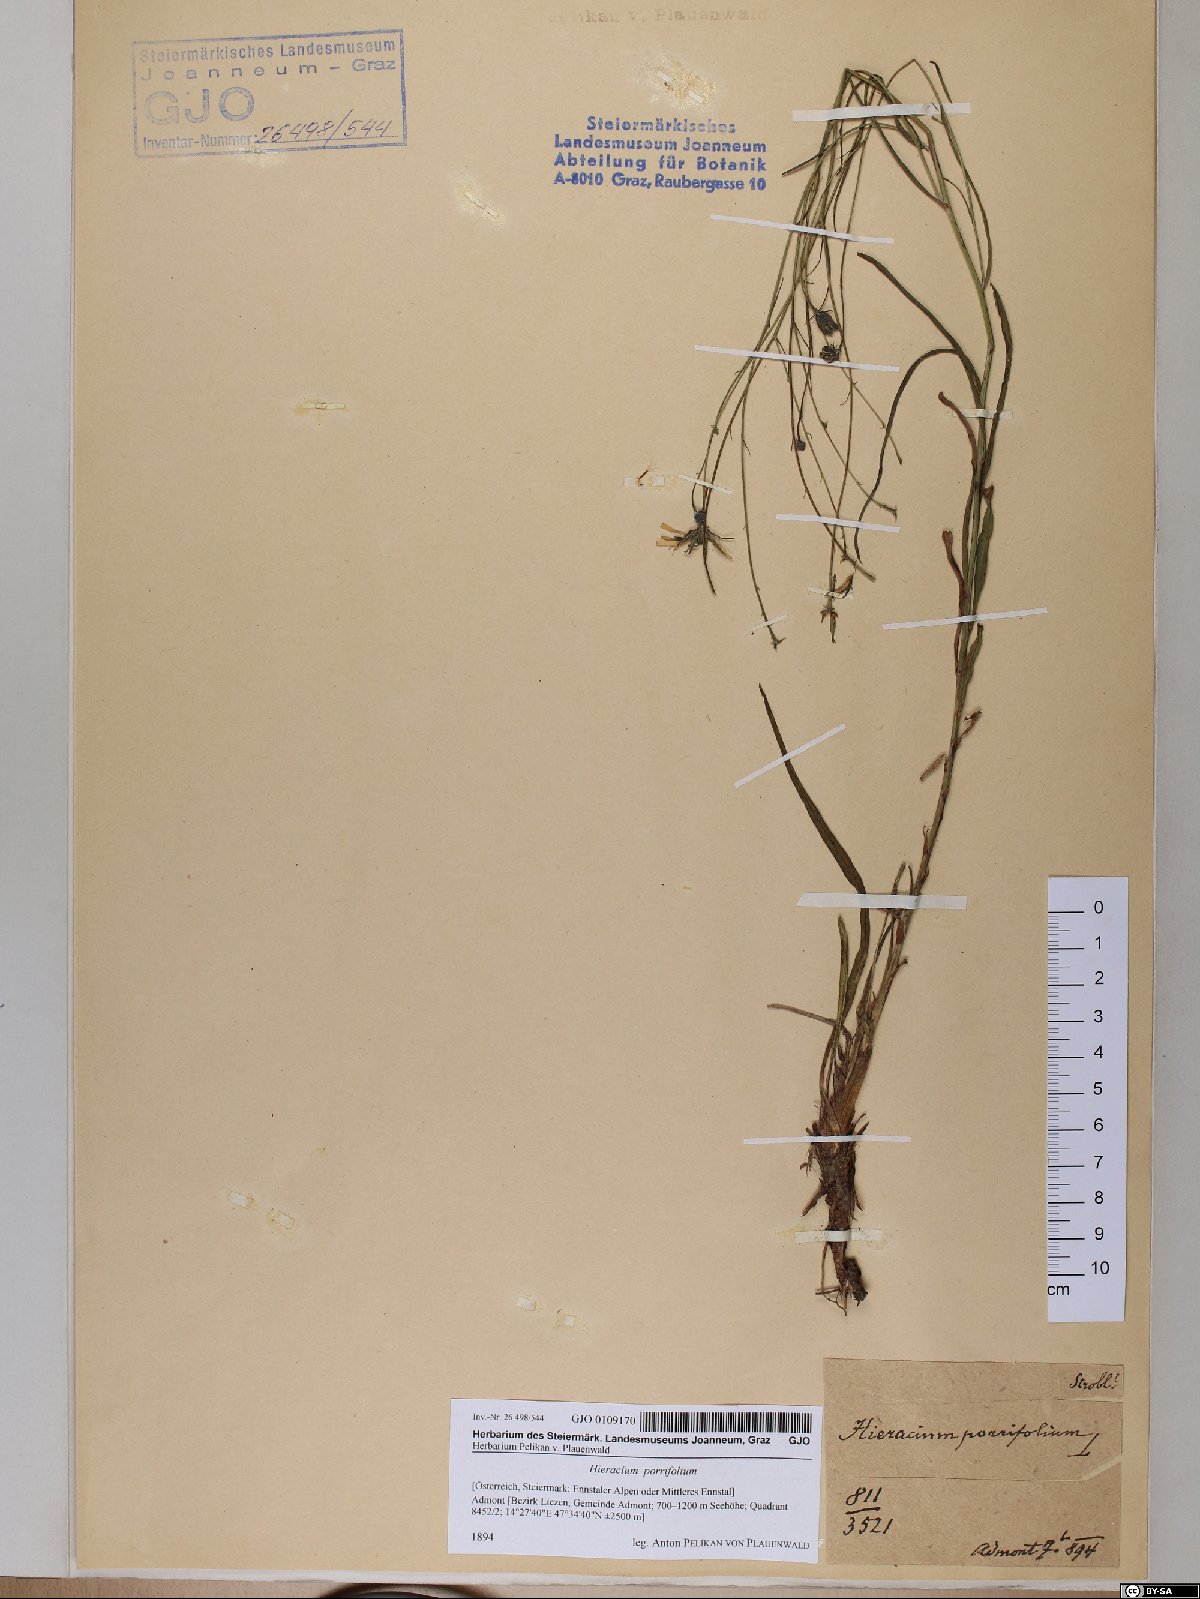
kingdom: Plantae
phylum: Tracheophyta
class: Magnoliopsida
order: Asterales
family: Asteraceae
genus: Hieracium
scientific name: Hieracium porrifolium
